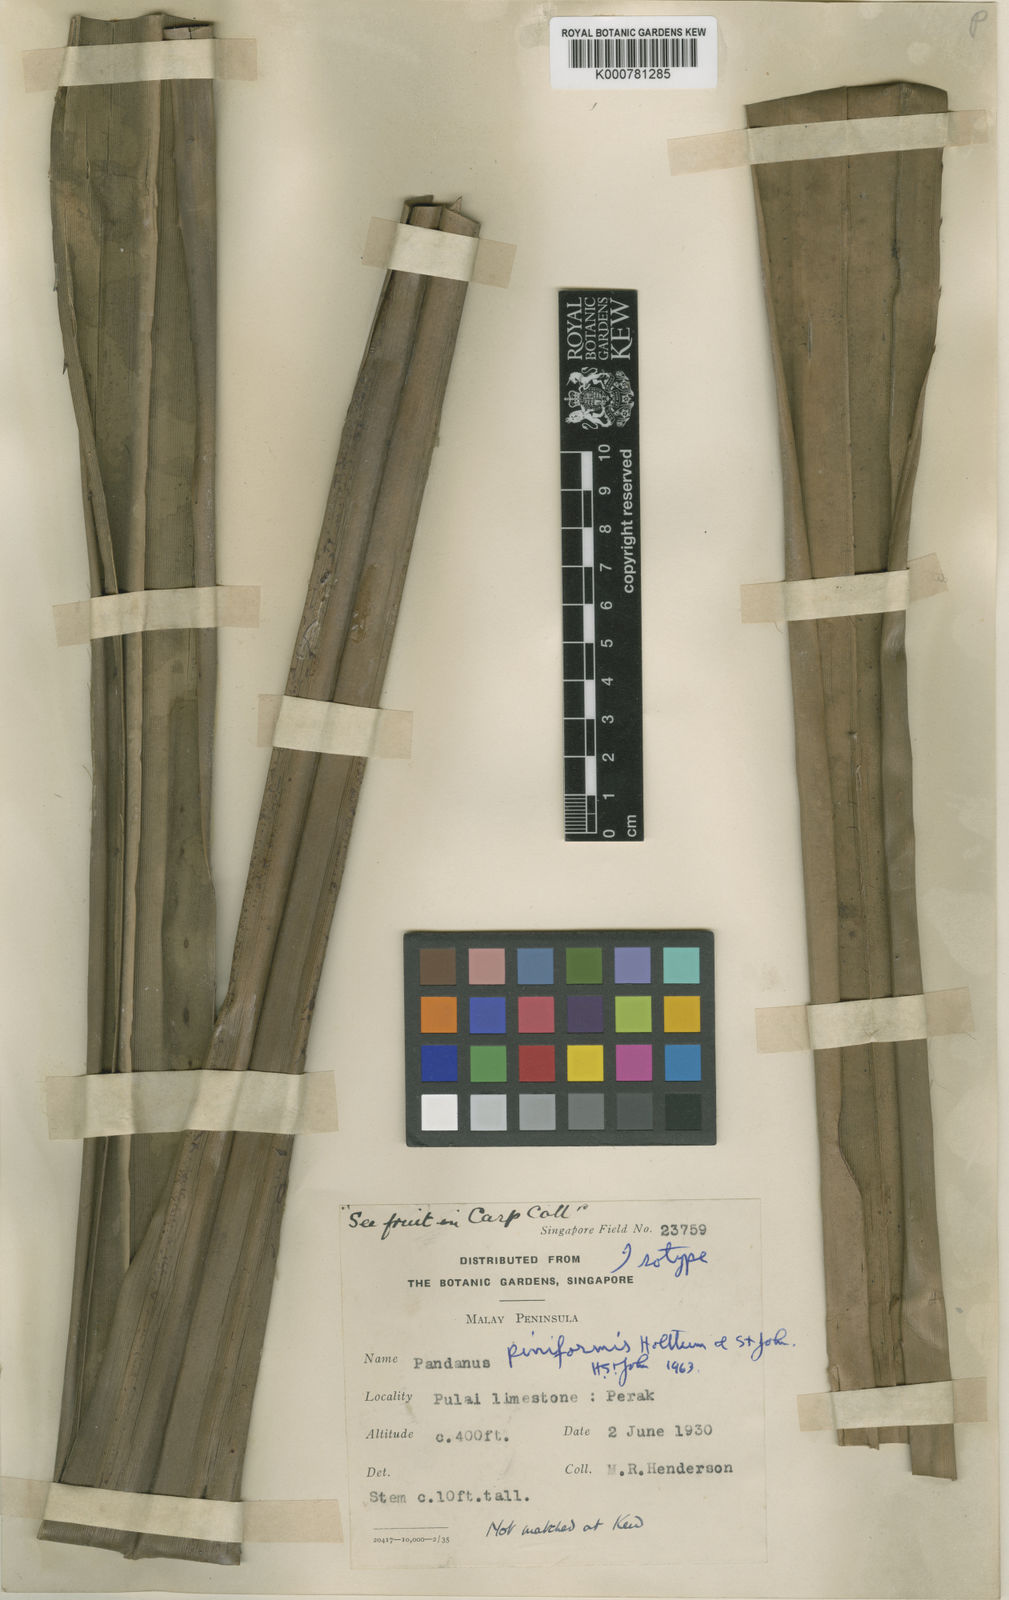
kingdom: Plantae
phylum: Tracheophyta
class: Liliopsida
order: Pandanales
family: Pandanaceae
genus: Pandanus
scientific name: Pandanus piniformis
